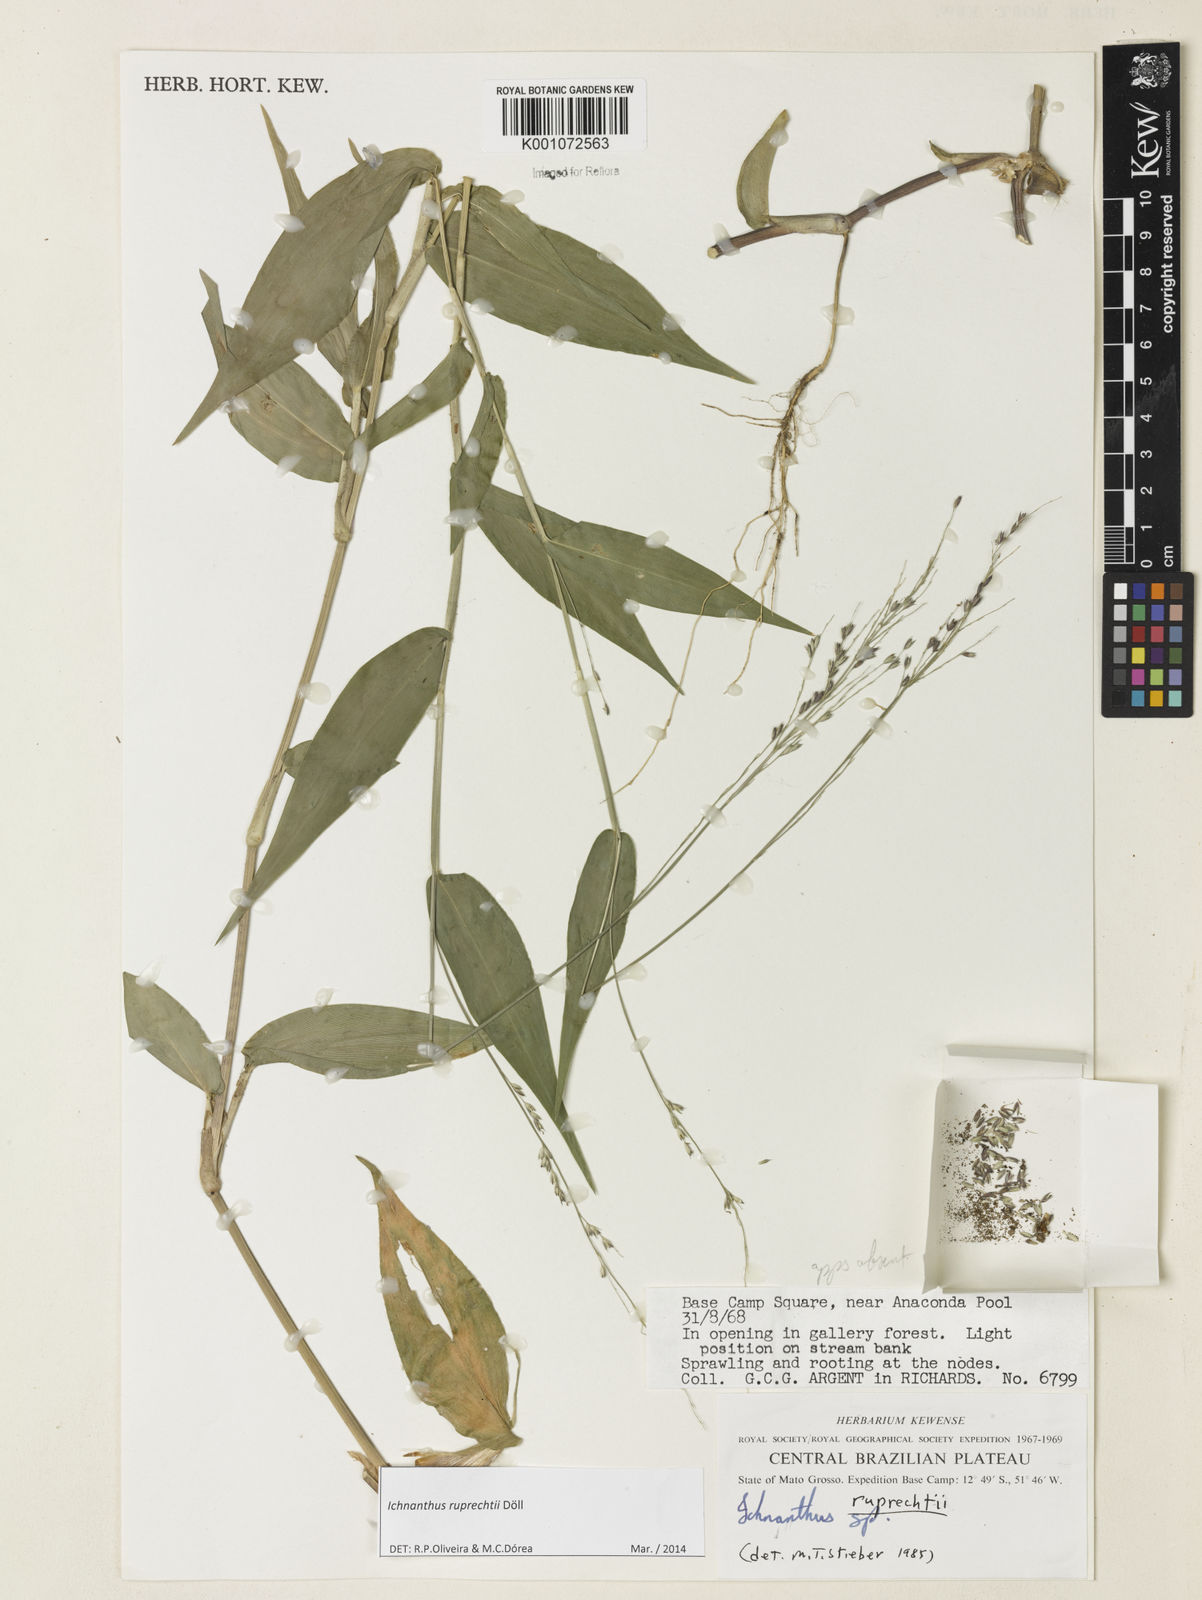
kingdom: Plantae
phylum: Tracheophyta
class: Liliopsida
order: Poales
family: Poaceae
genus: Ichnanthus
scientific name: Ichnanthus
